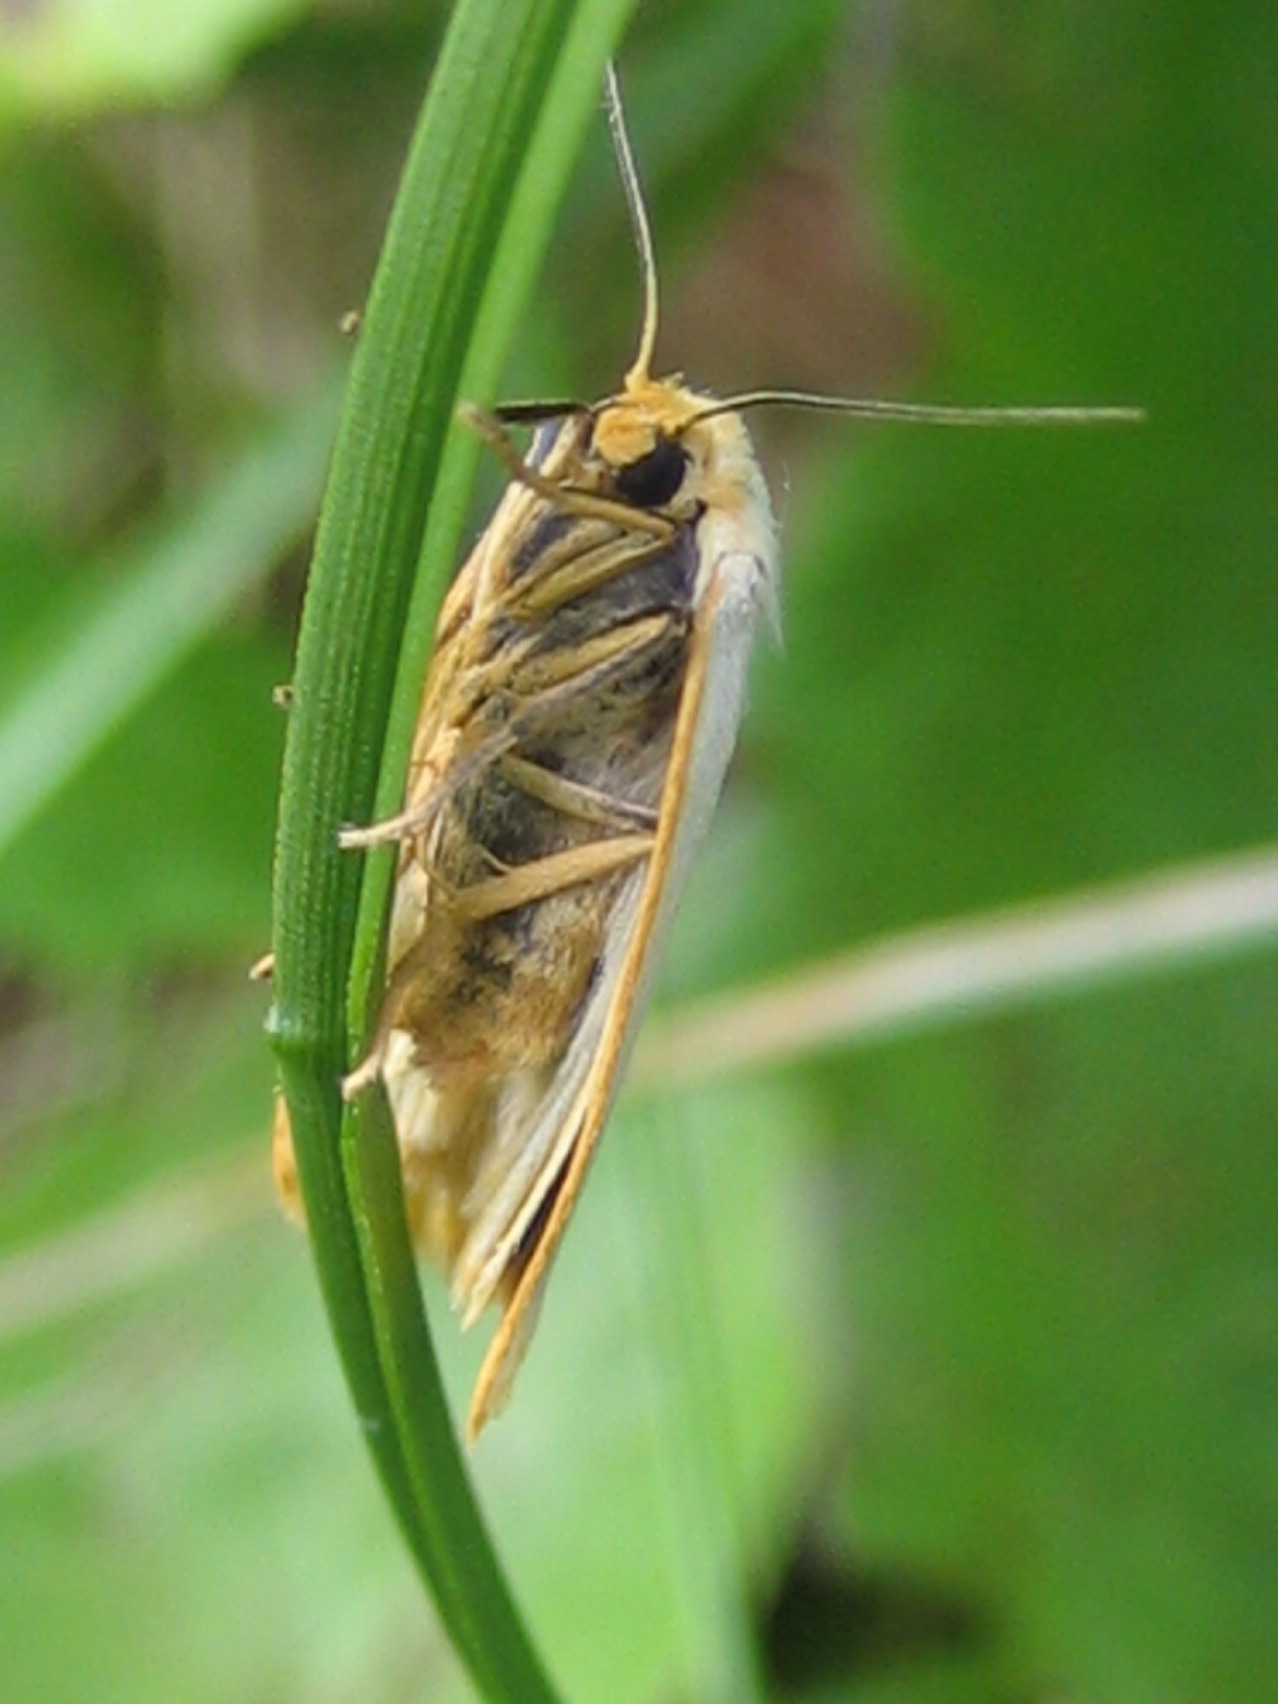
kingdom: Animalia
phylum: Arthropoda
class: Insecta
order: Lepidoptera
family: Erebidae
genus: Cybosia
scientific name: Cybosia mesomella
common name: Dag-lavspinder
